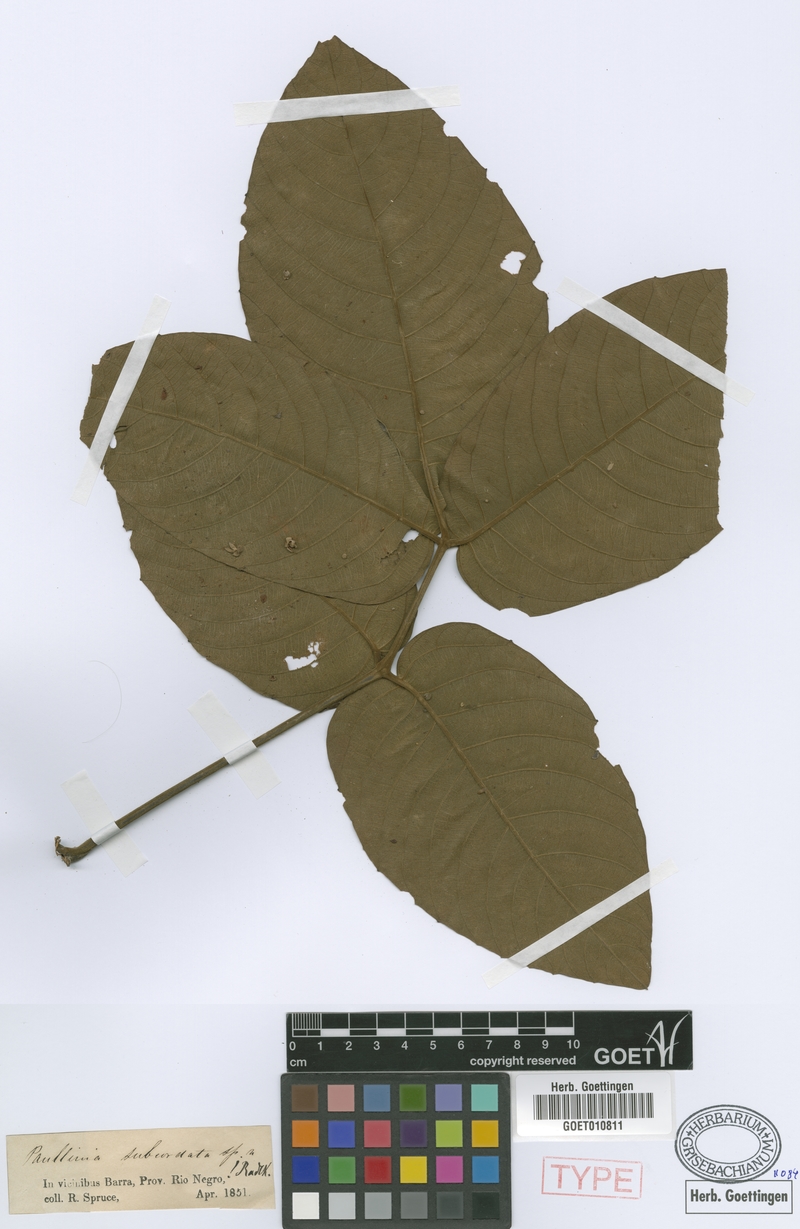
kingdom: Plantae
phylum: Tracheophyta
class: Magnoliopsida
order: Sapindales
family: Sapindaceae
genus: Paullinia
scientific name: Paullinia rugosa
